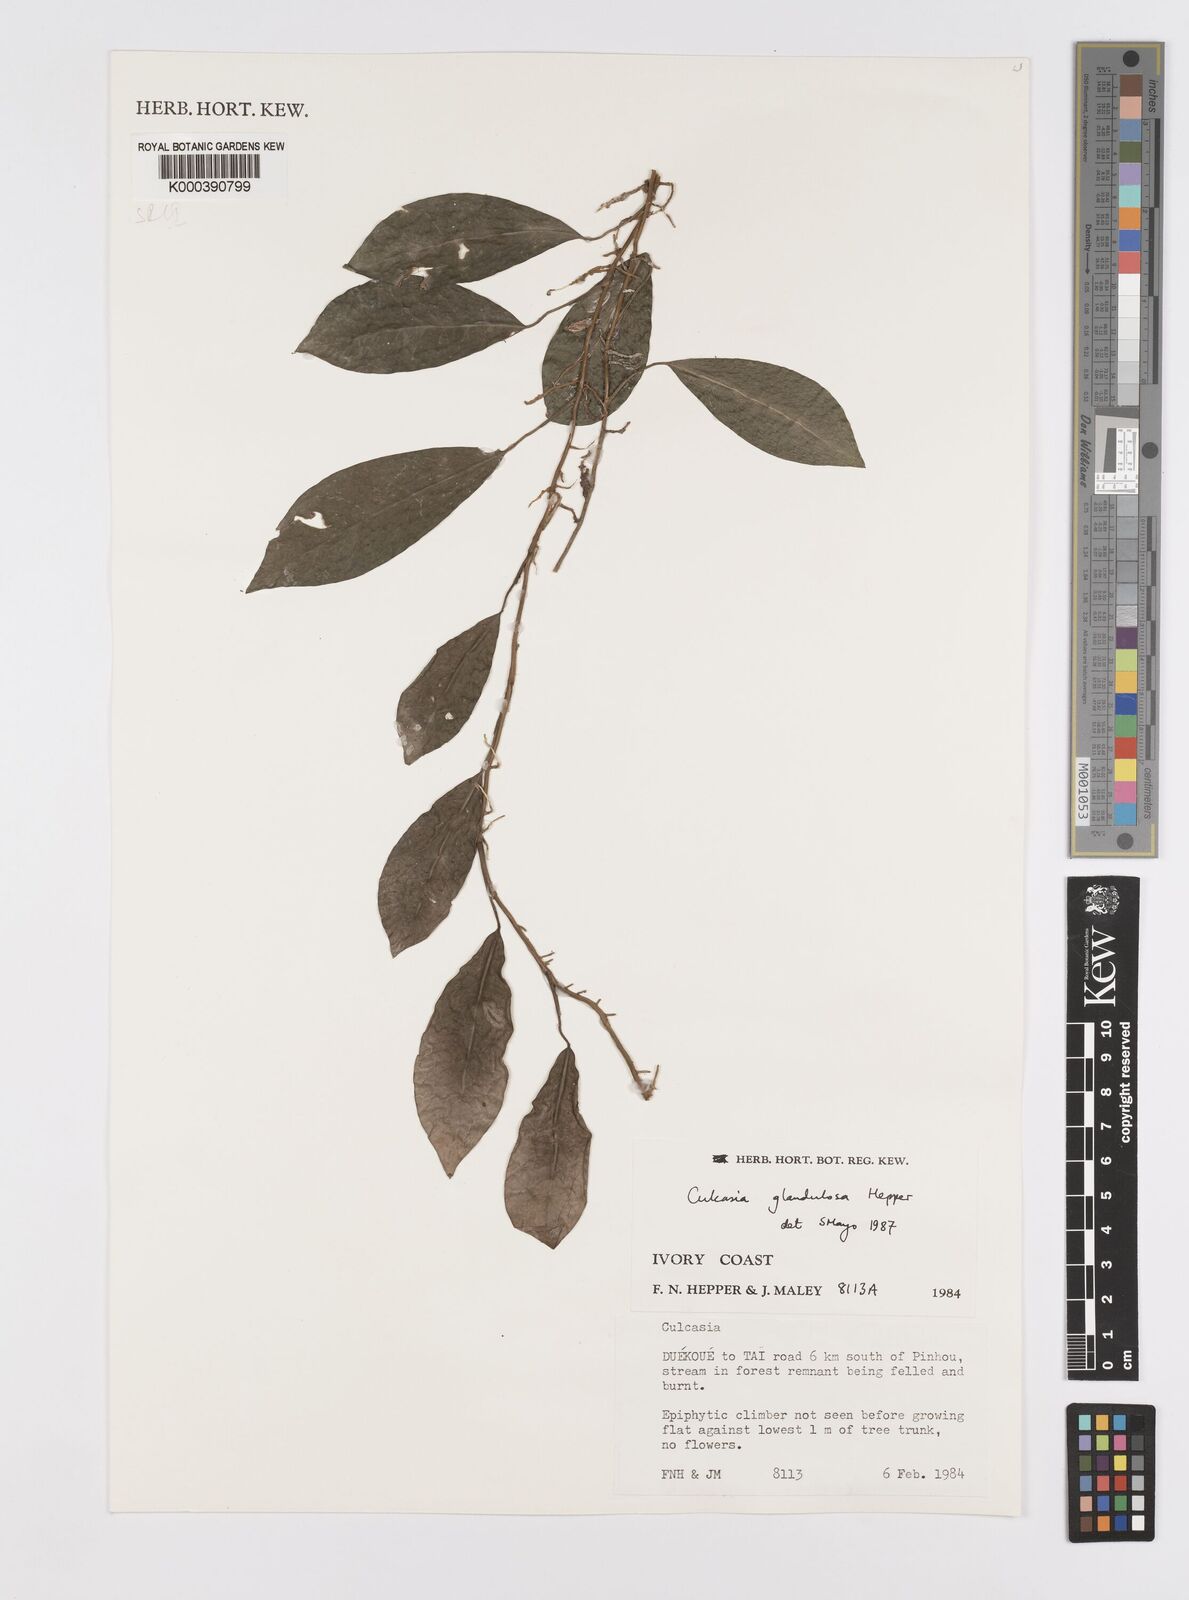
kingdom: Plantae
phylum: Tracheophyta
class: Liliopsida
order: Alismatales
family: Araceae
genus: Culcasia
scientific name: Culcasia glandulosa
